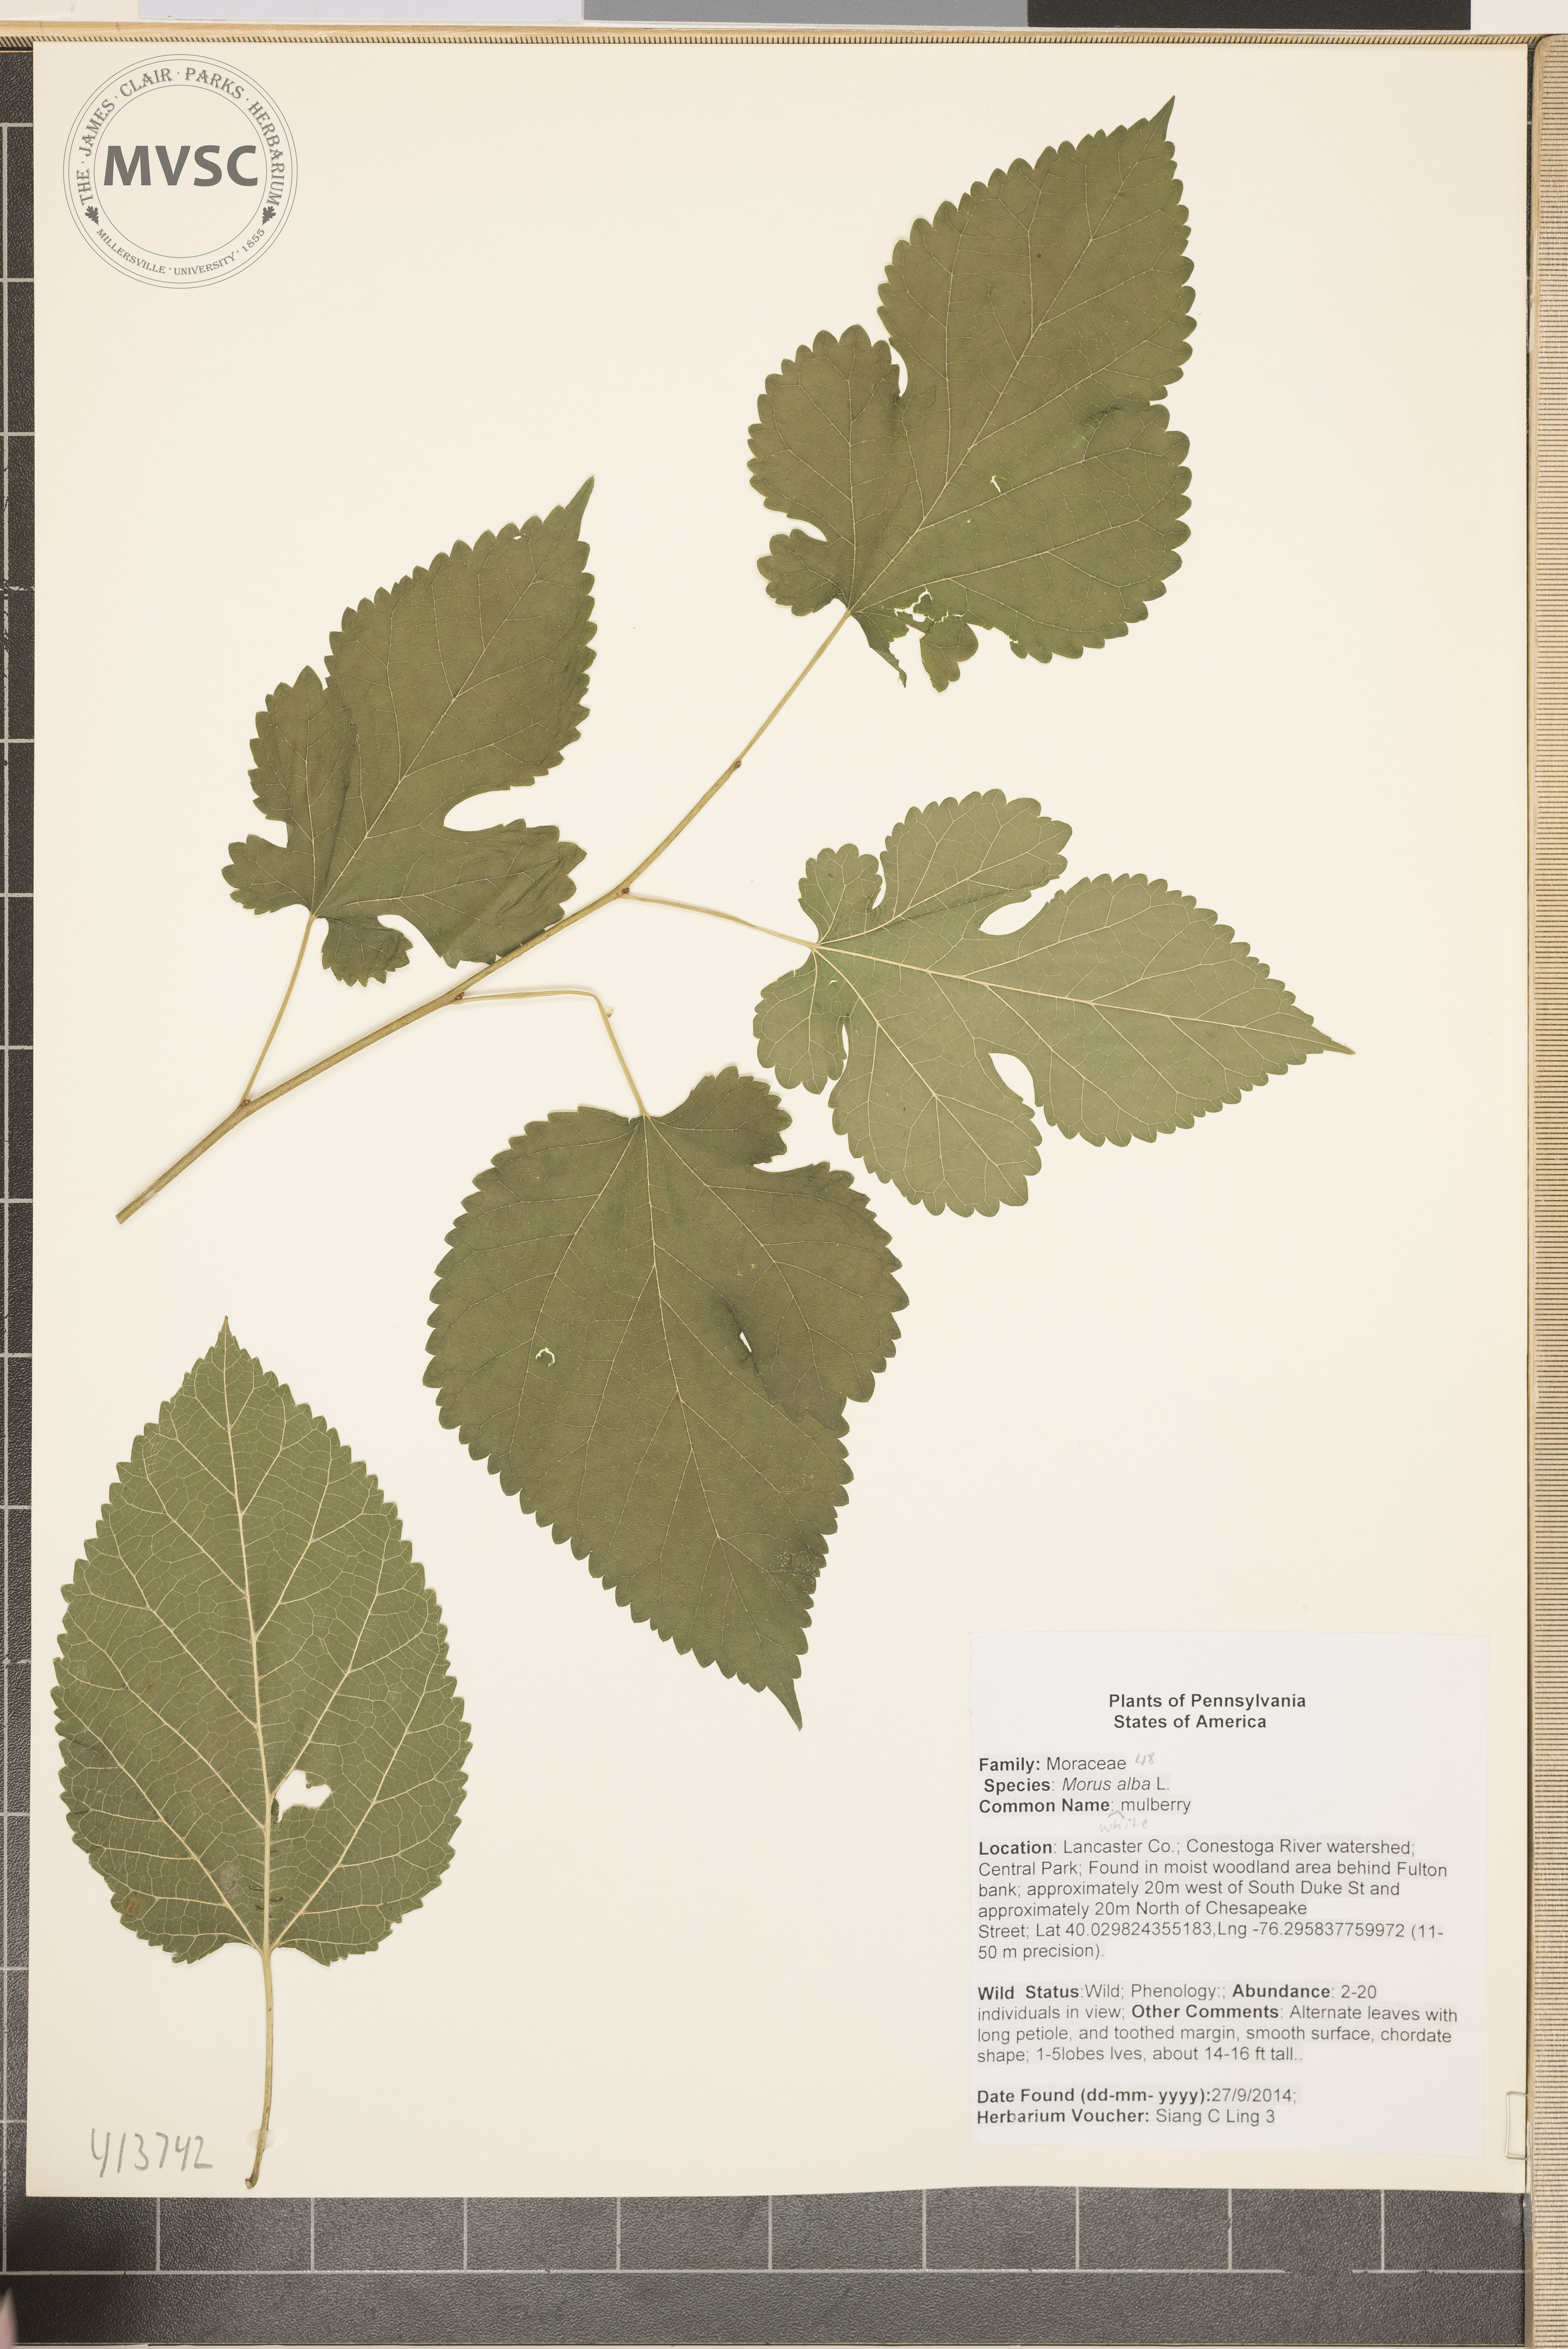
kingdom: Plantae
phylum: Tracheophyta
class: Magnoliopsida
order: Rosales
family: Moraceae
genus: Morus
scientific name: Morus alba
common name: mulberry
